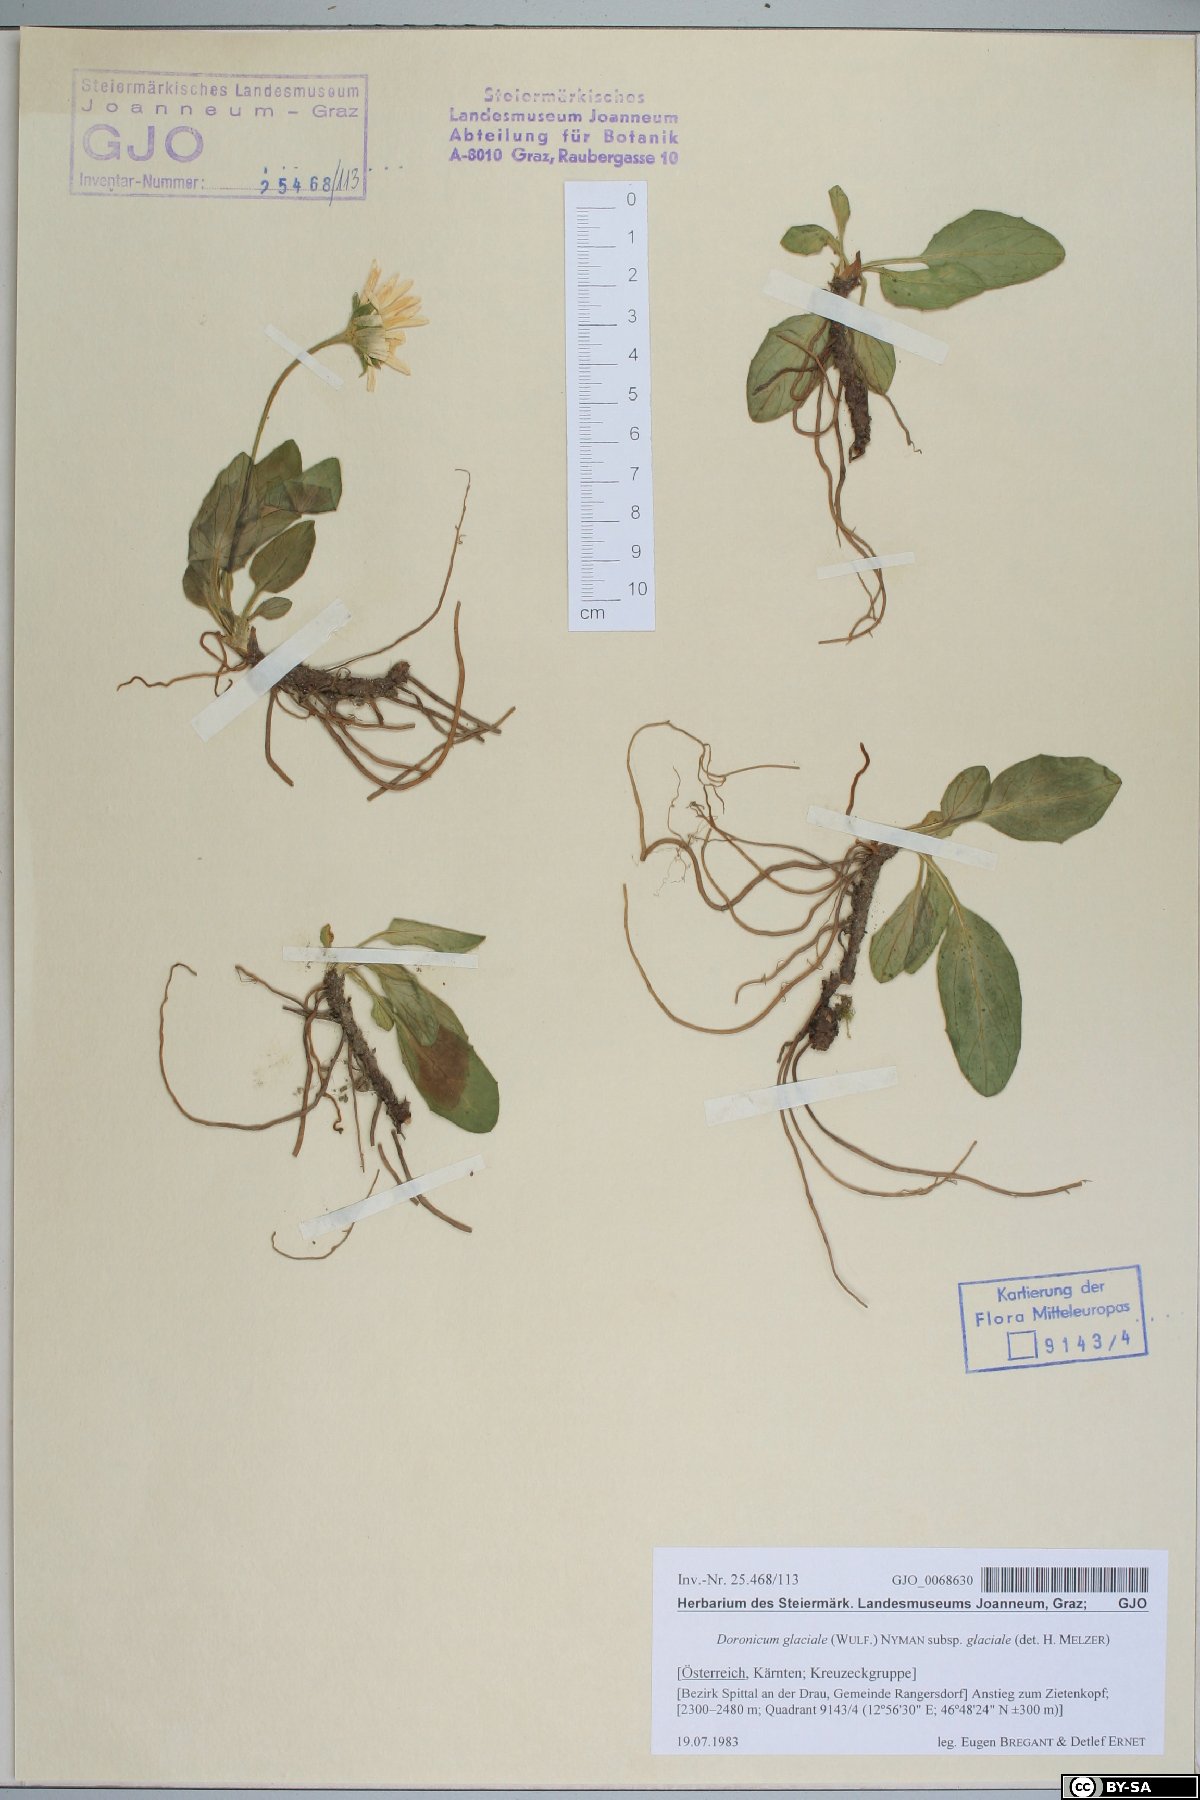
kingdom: Plantae
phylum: Tracheophyta
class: Magnoliopsida
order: Asterales
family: Asteraceae
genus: Doronicum
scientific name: Doronicum glaciale
